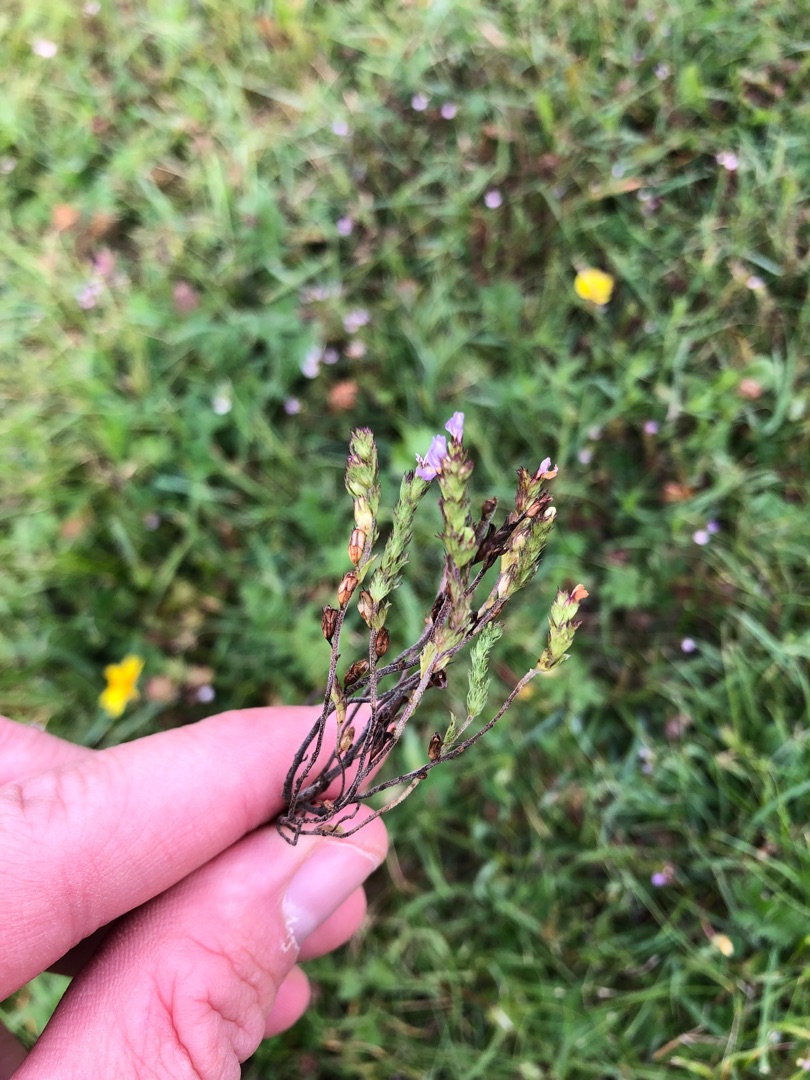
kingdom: Plantae
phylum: Tracheophyta
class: Magnoliopsida
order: Lamiales
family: Orobanchaceae
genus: Euphrasia
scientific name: Euphrasia micrantha
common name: Lyng-øjentrøst
